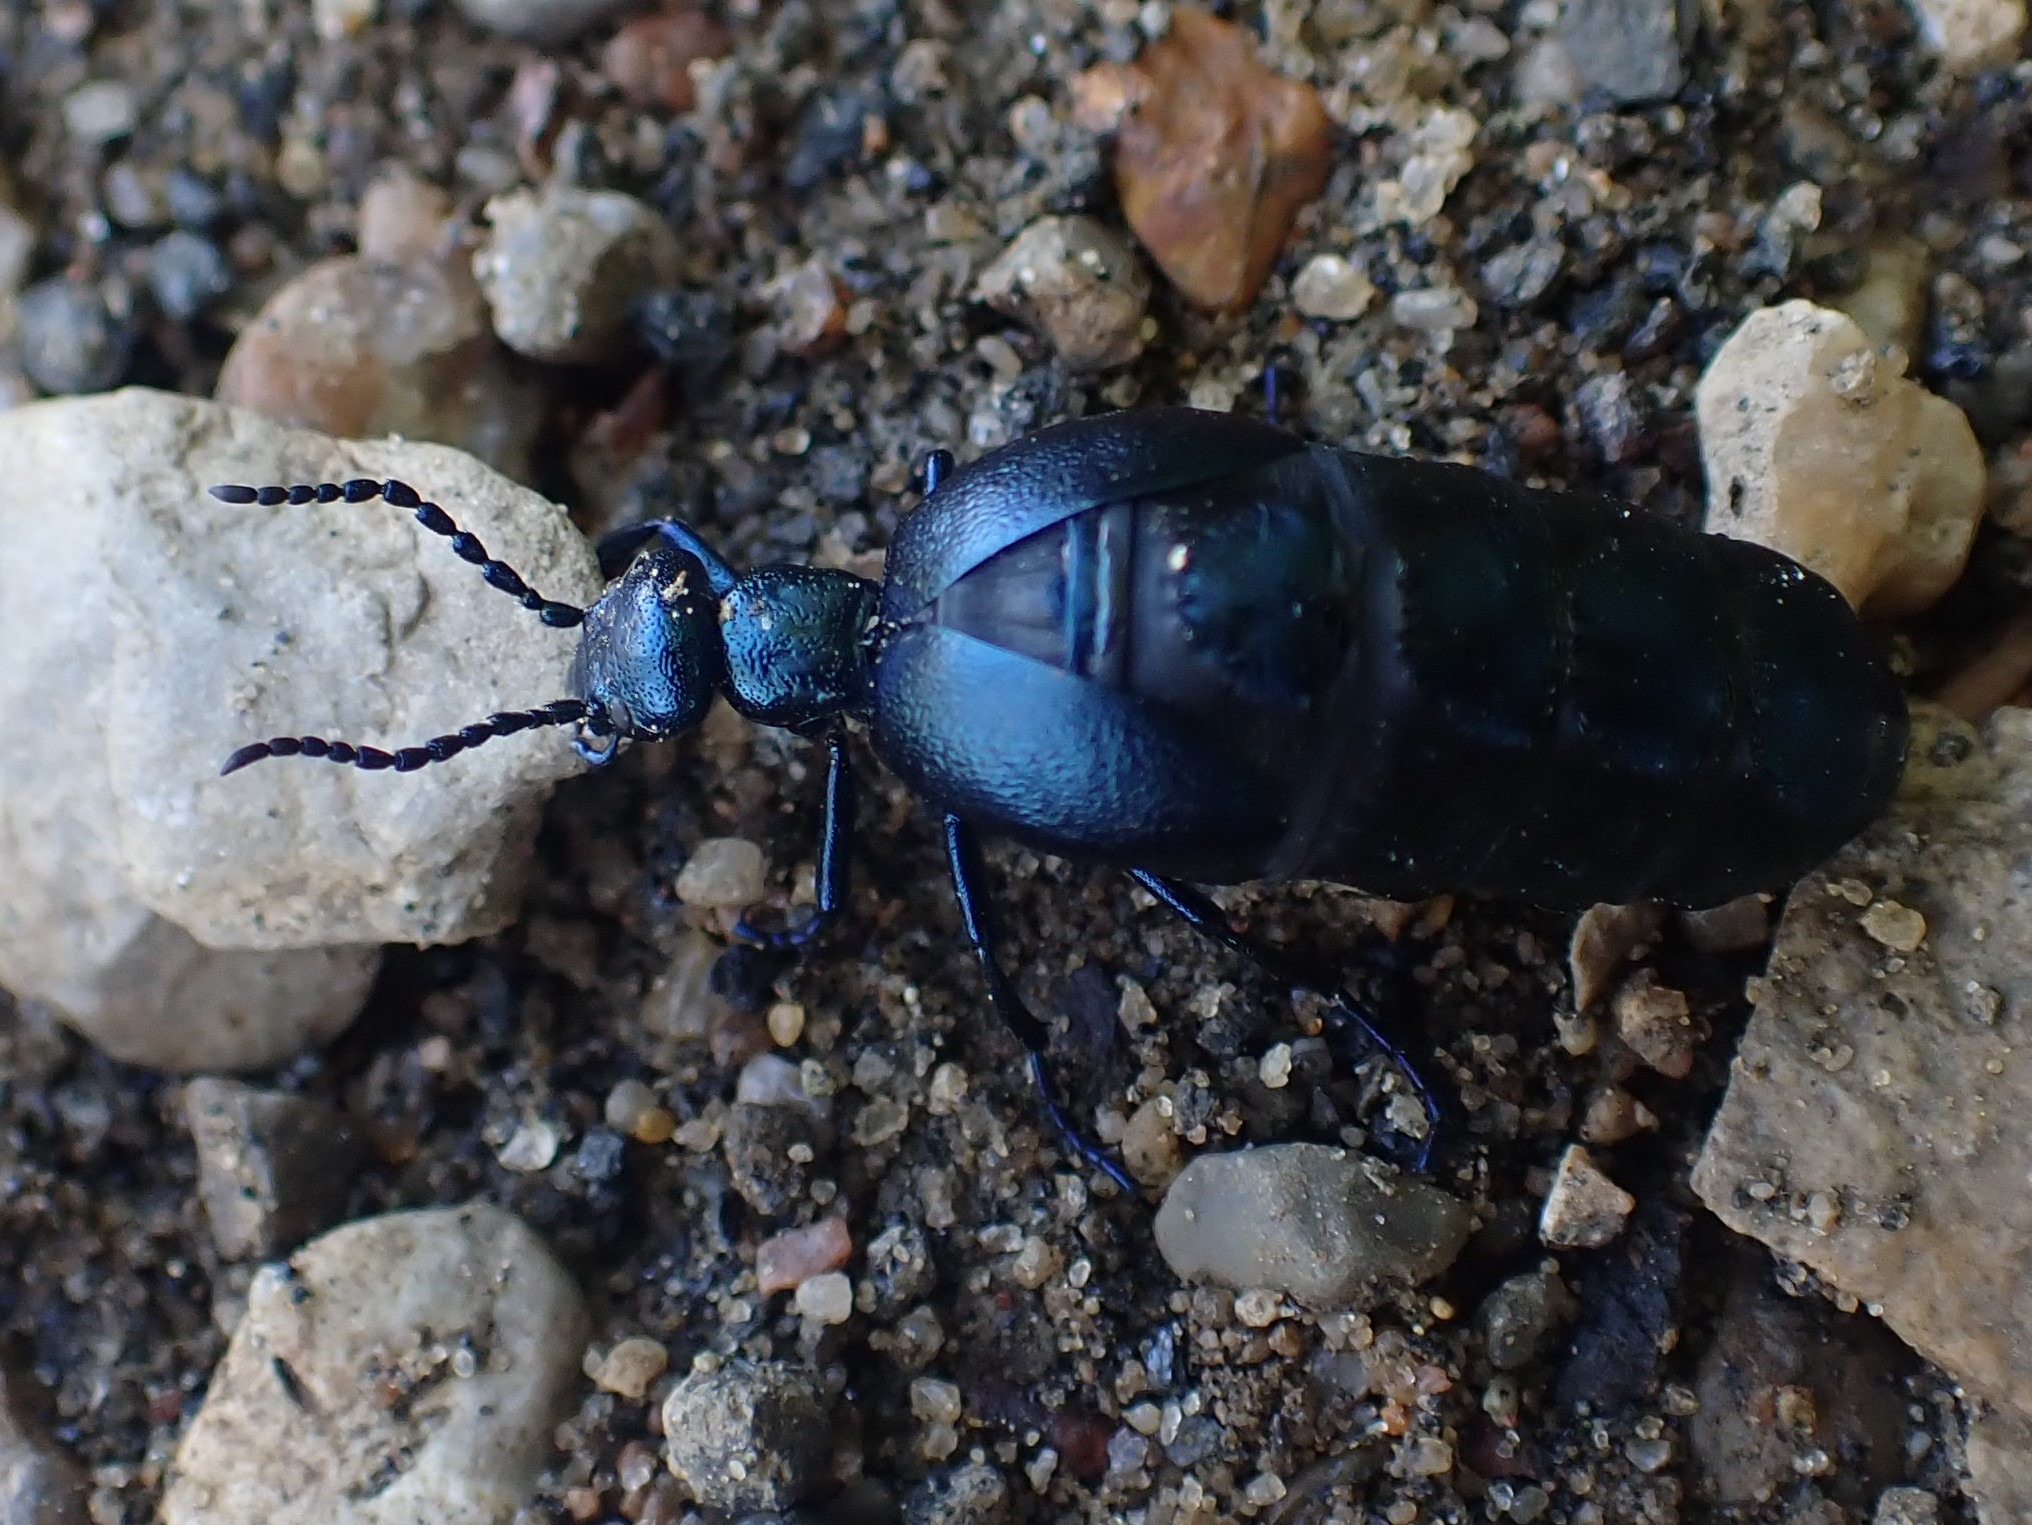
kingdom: Animalia
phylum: Arthropoda
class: Insecta
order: Coleoptera
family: Meloidae
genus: Meloe
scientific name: Meloe violaceus
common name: Blå oliebille
